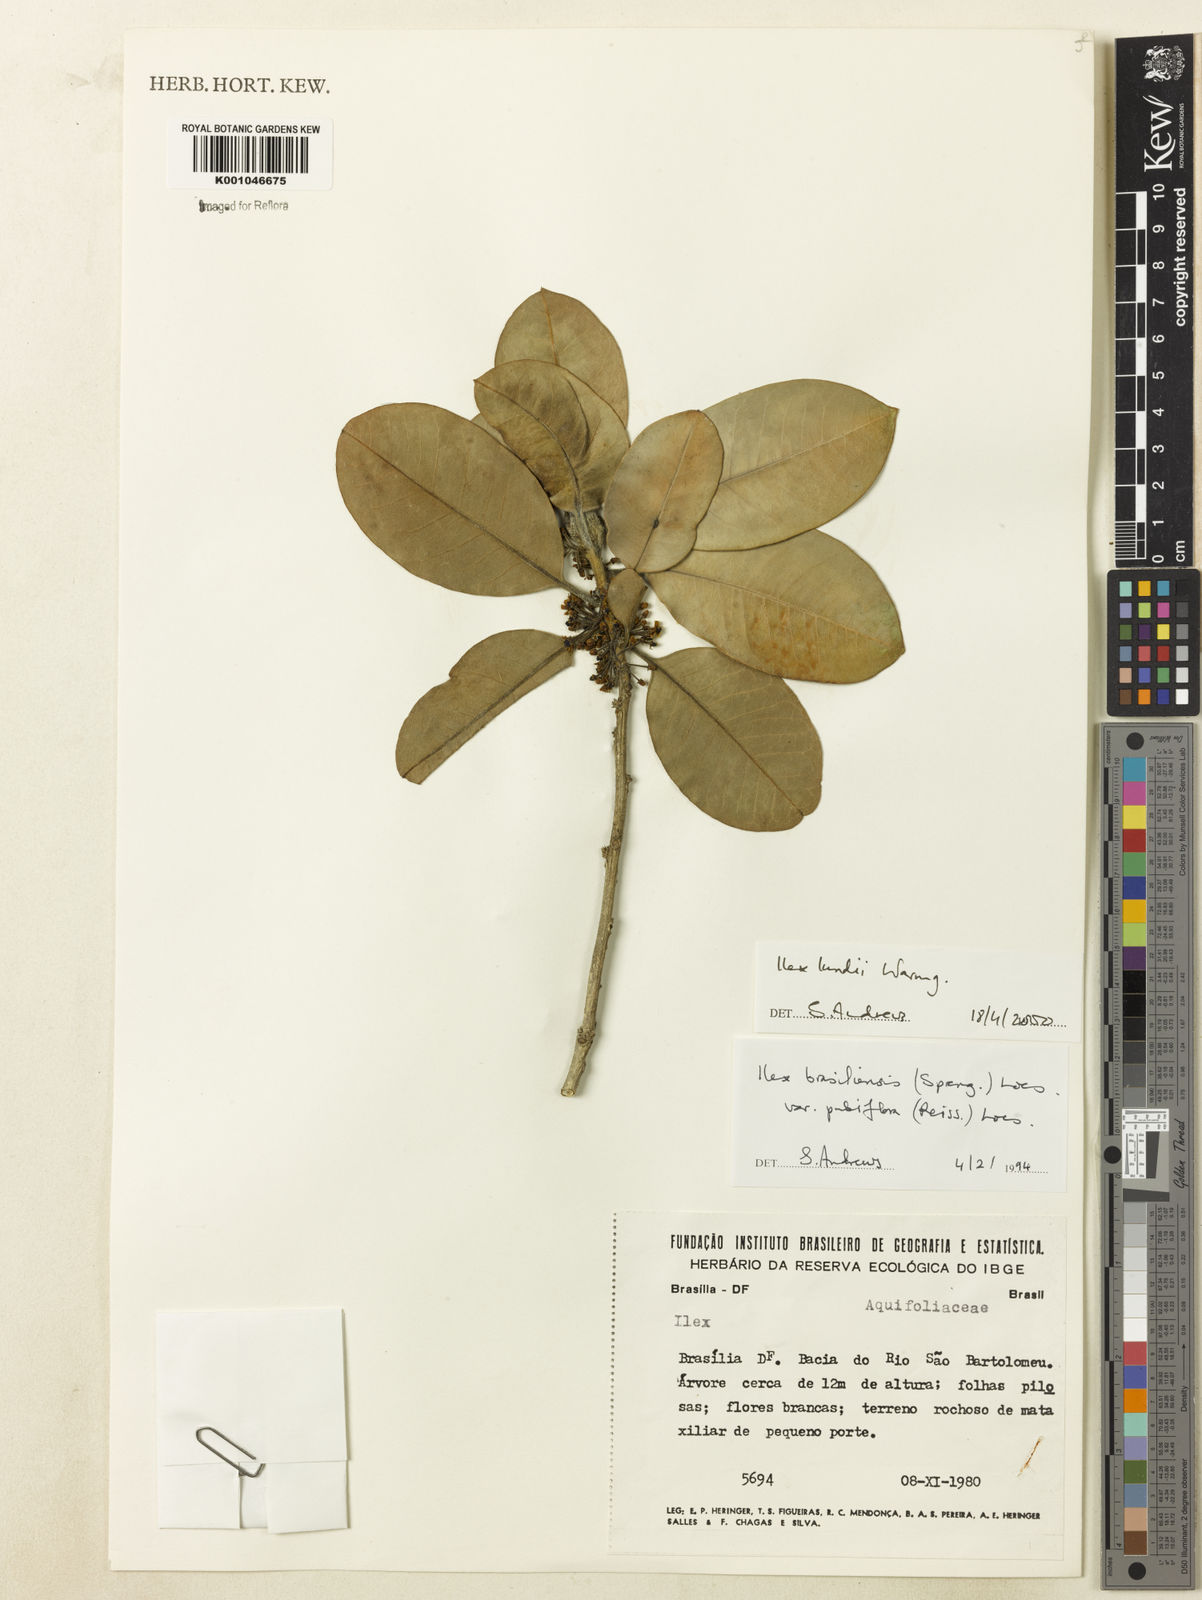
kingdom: Plantae
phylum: Tracheophyta
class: Magnoliopsida
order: Aquifoliales
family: Aquifoliaceae
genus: Ilex
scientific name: Ilex lundii
